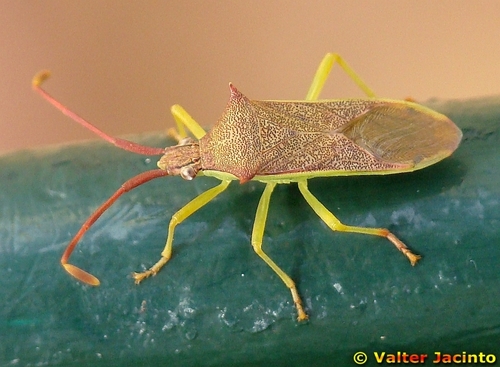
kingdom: Animalia
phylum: Arthropoda
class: Insecta
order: Hemiptera
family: Coreidae
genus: Plinachtus
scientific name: Plinachtus imitator
